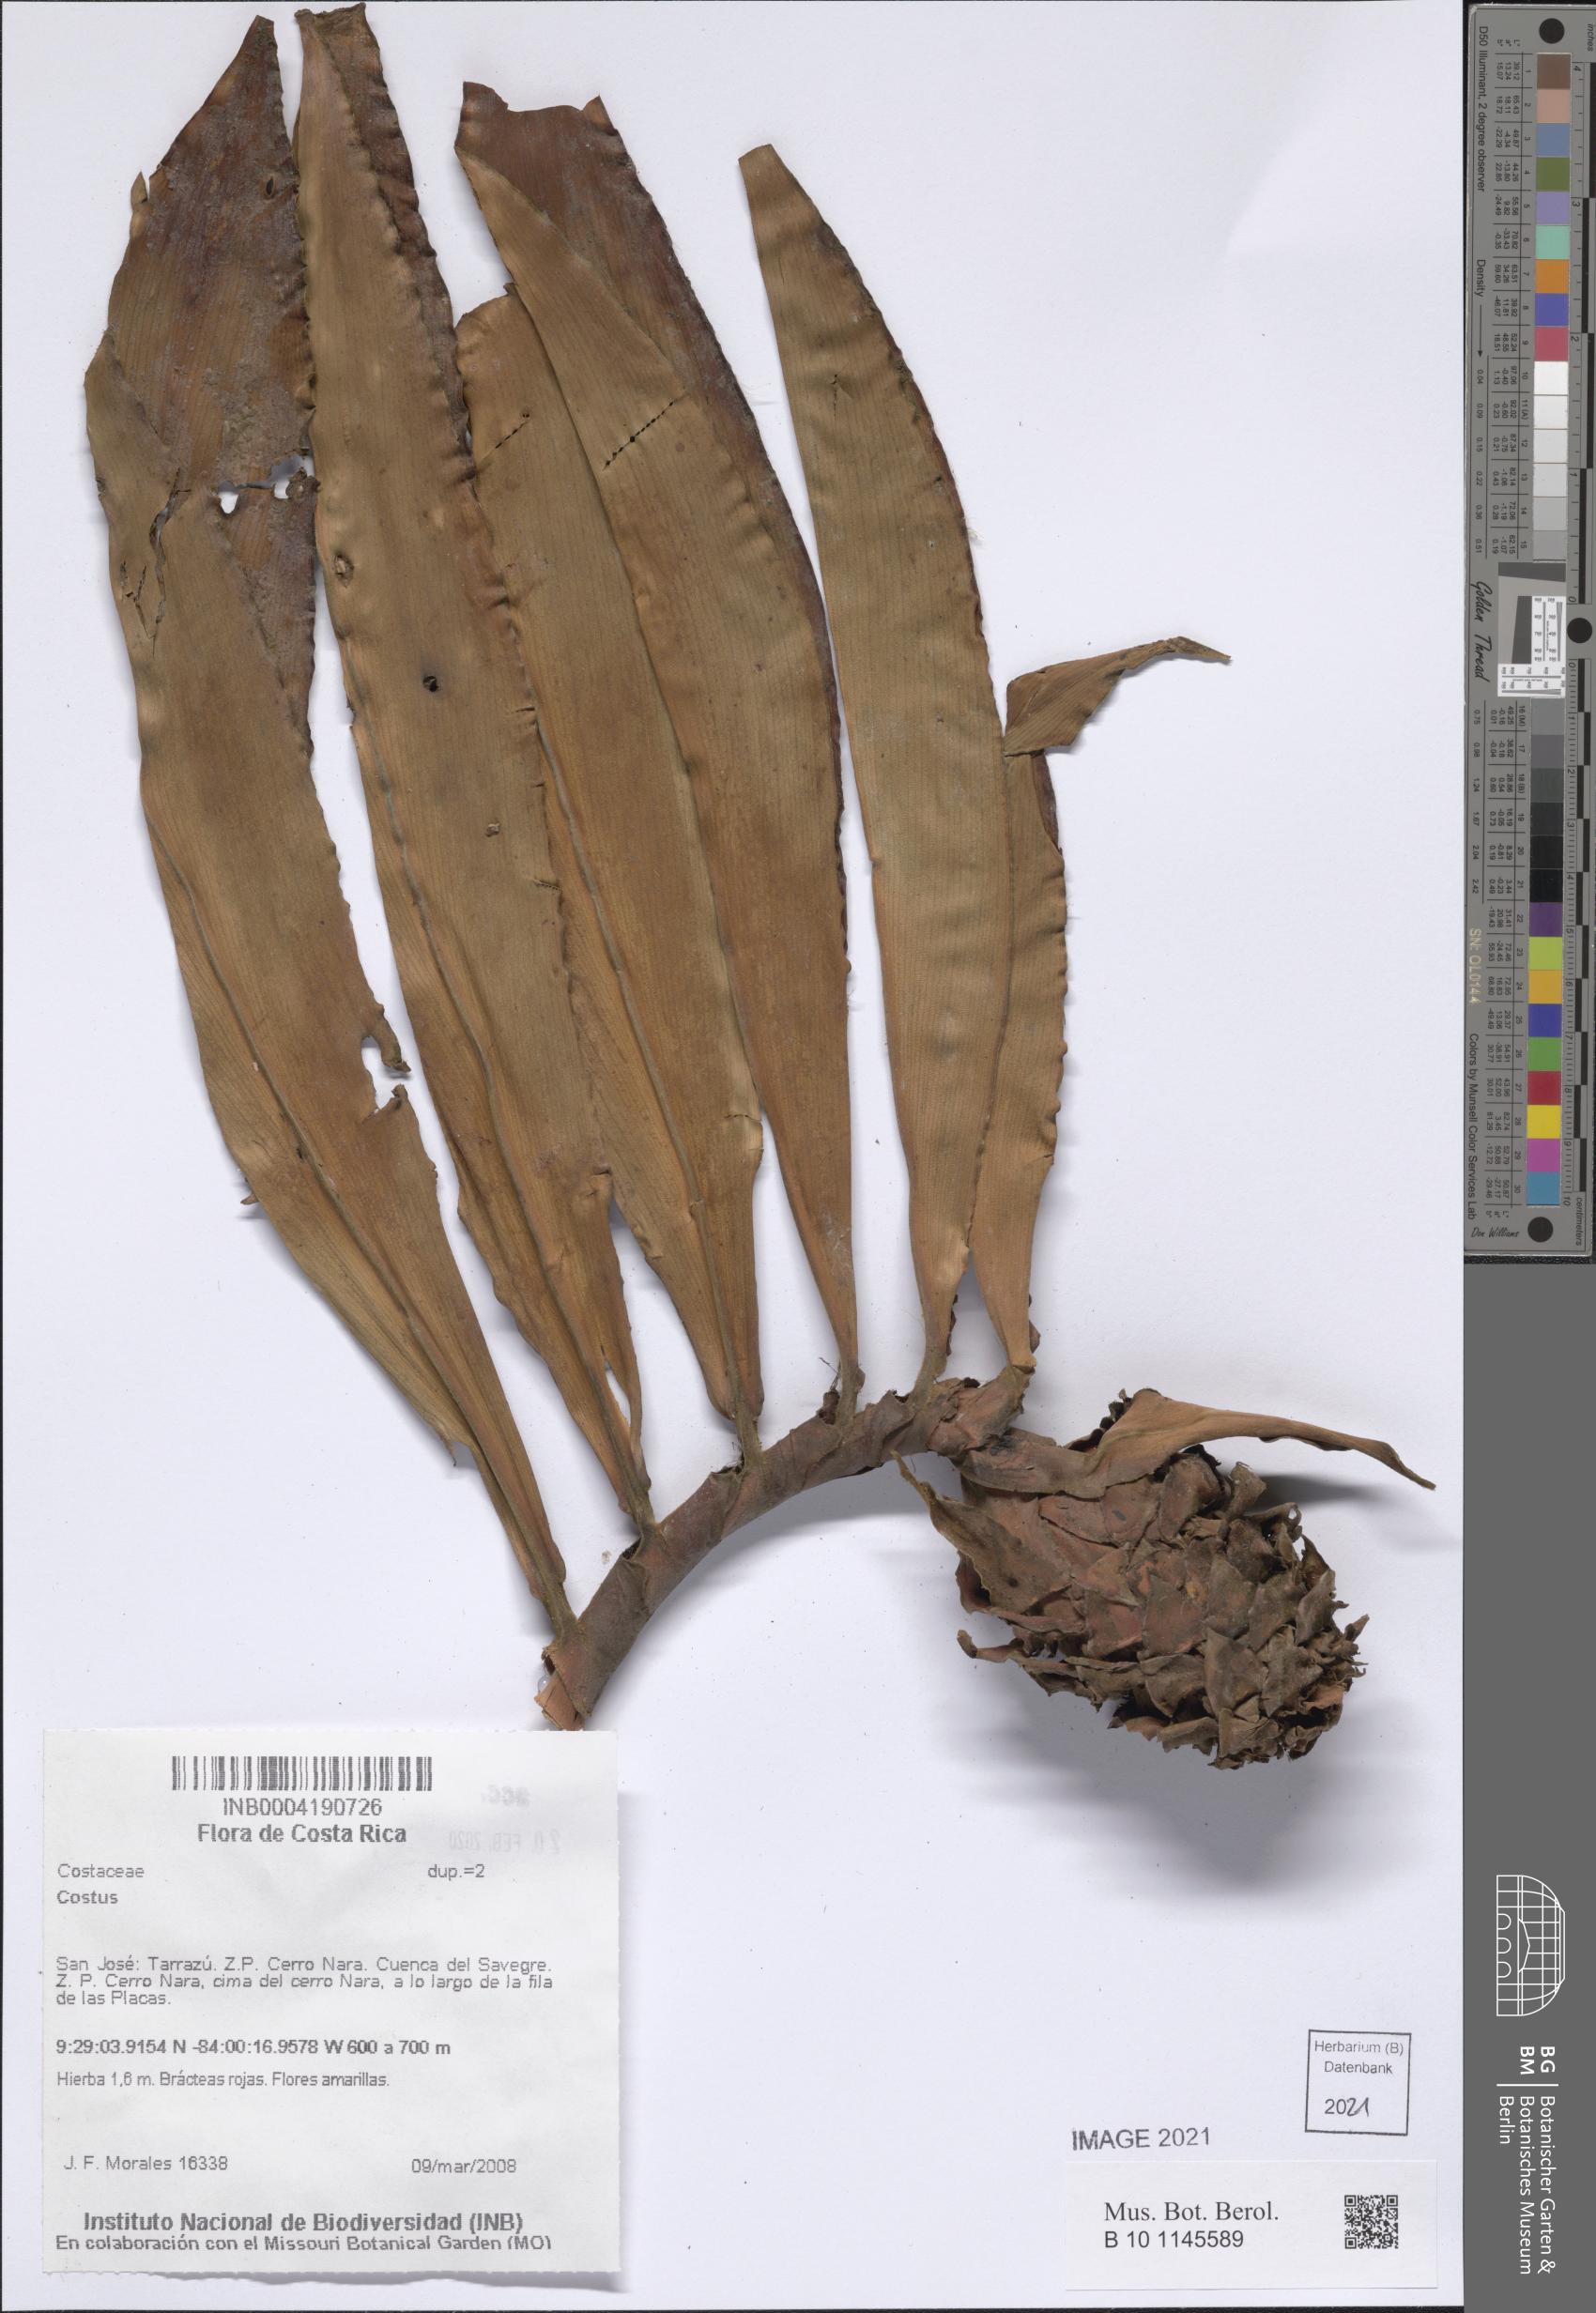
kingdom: Plantae
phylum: Tracheophyta
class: Liliopsida
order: Zingiberales
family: Costaceae
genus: Costus
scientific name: Costus
